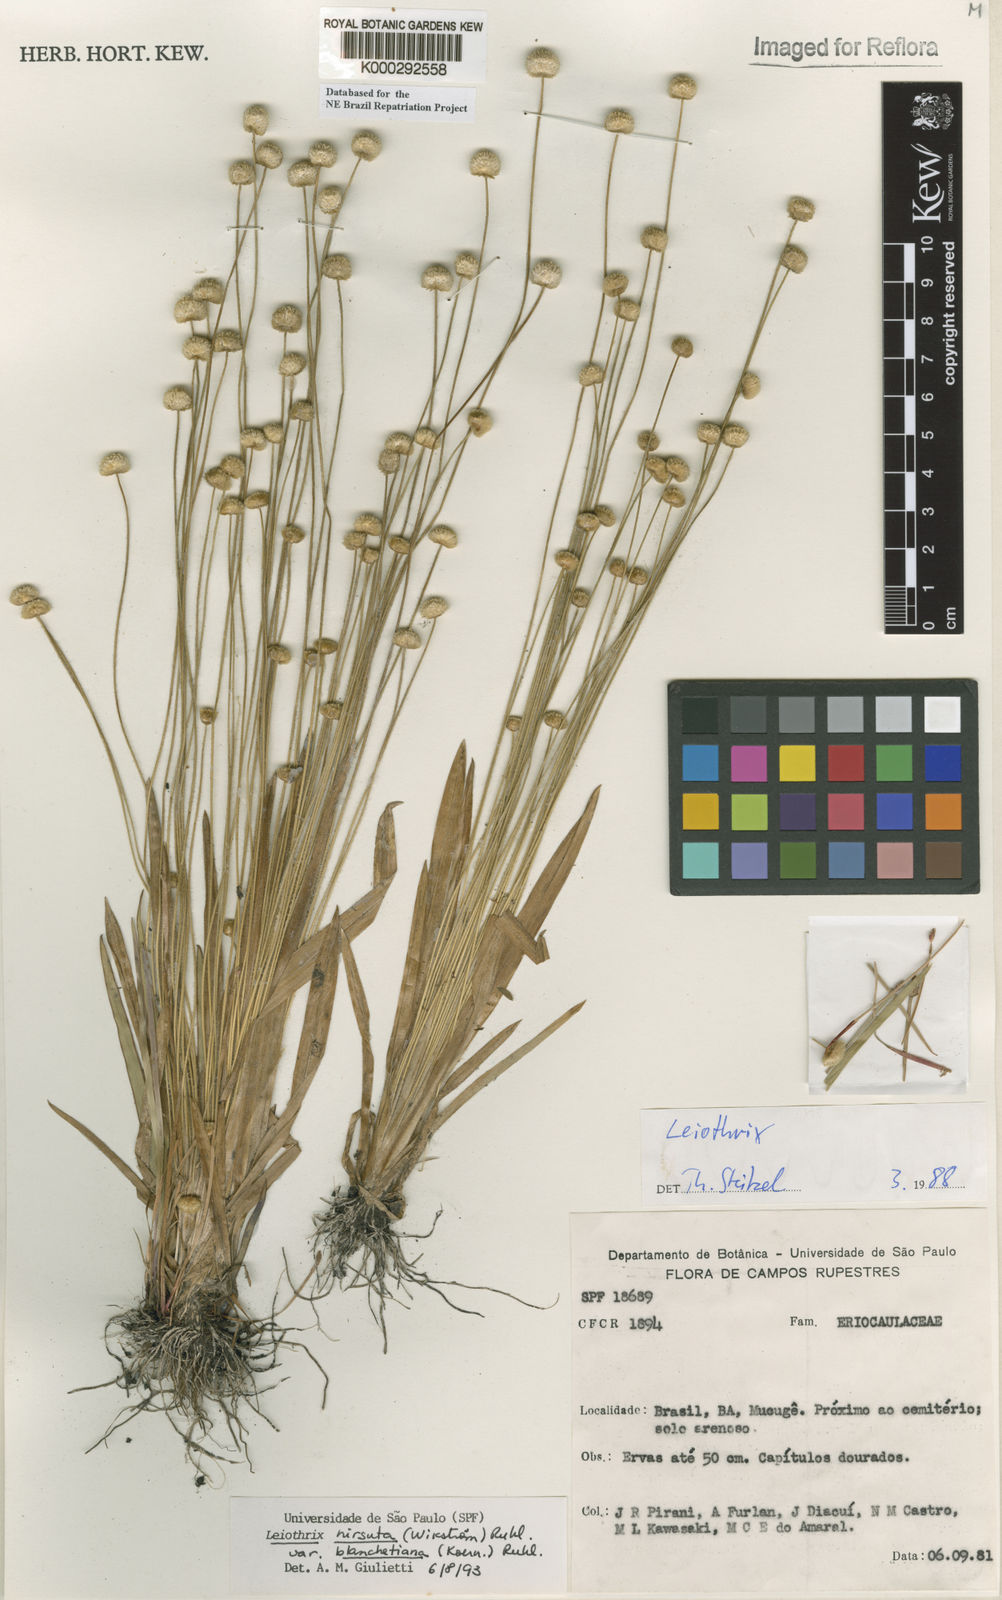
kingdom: Plantae
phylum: Tracheophyta
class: Liliopsida
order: Poales
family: Eriocaulaceae
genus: Leiothrix
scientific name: Leiothrix hirsuta
